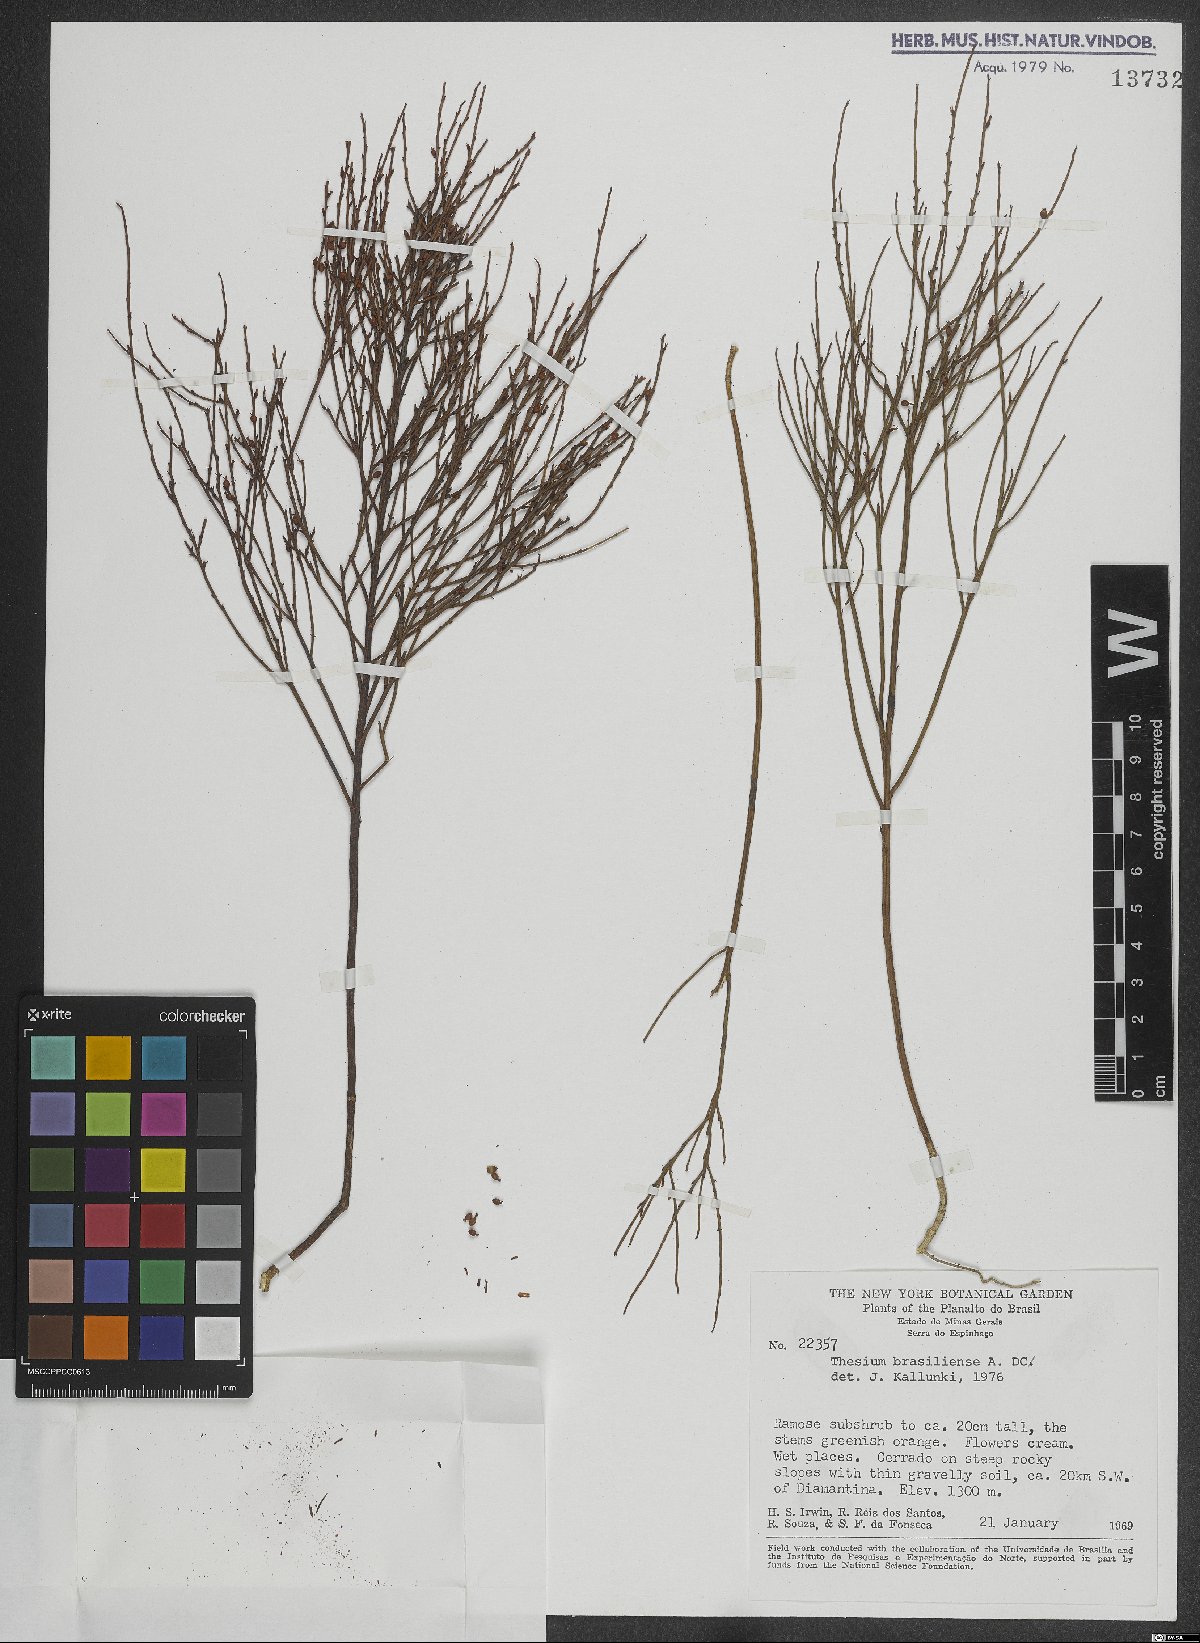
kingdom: Plantae
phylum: Tracheophyta
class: Magnoliopsida
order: Santalales
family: Thesiaceae
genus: Austroamericium
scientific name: Austroamericium brasiliense
